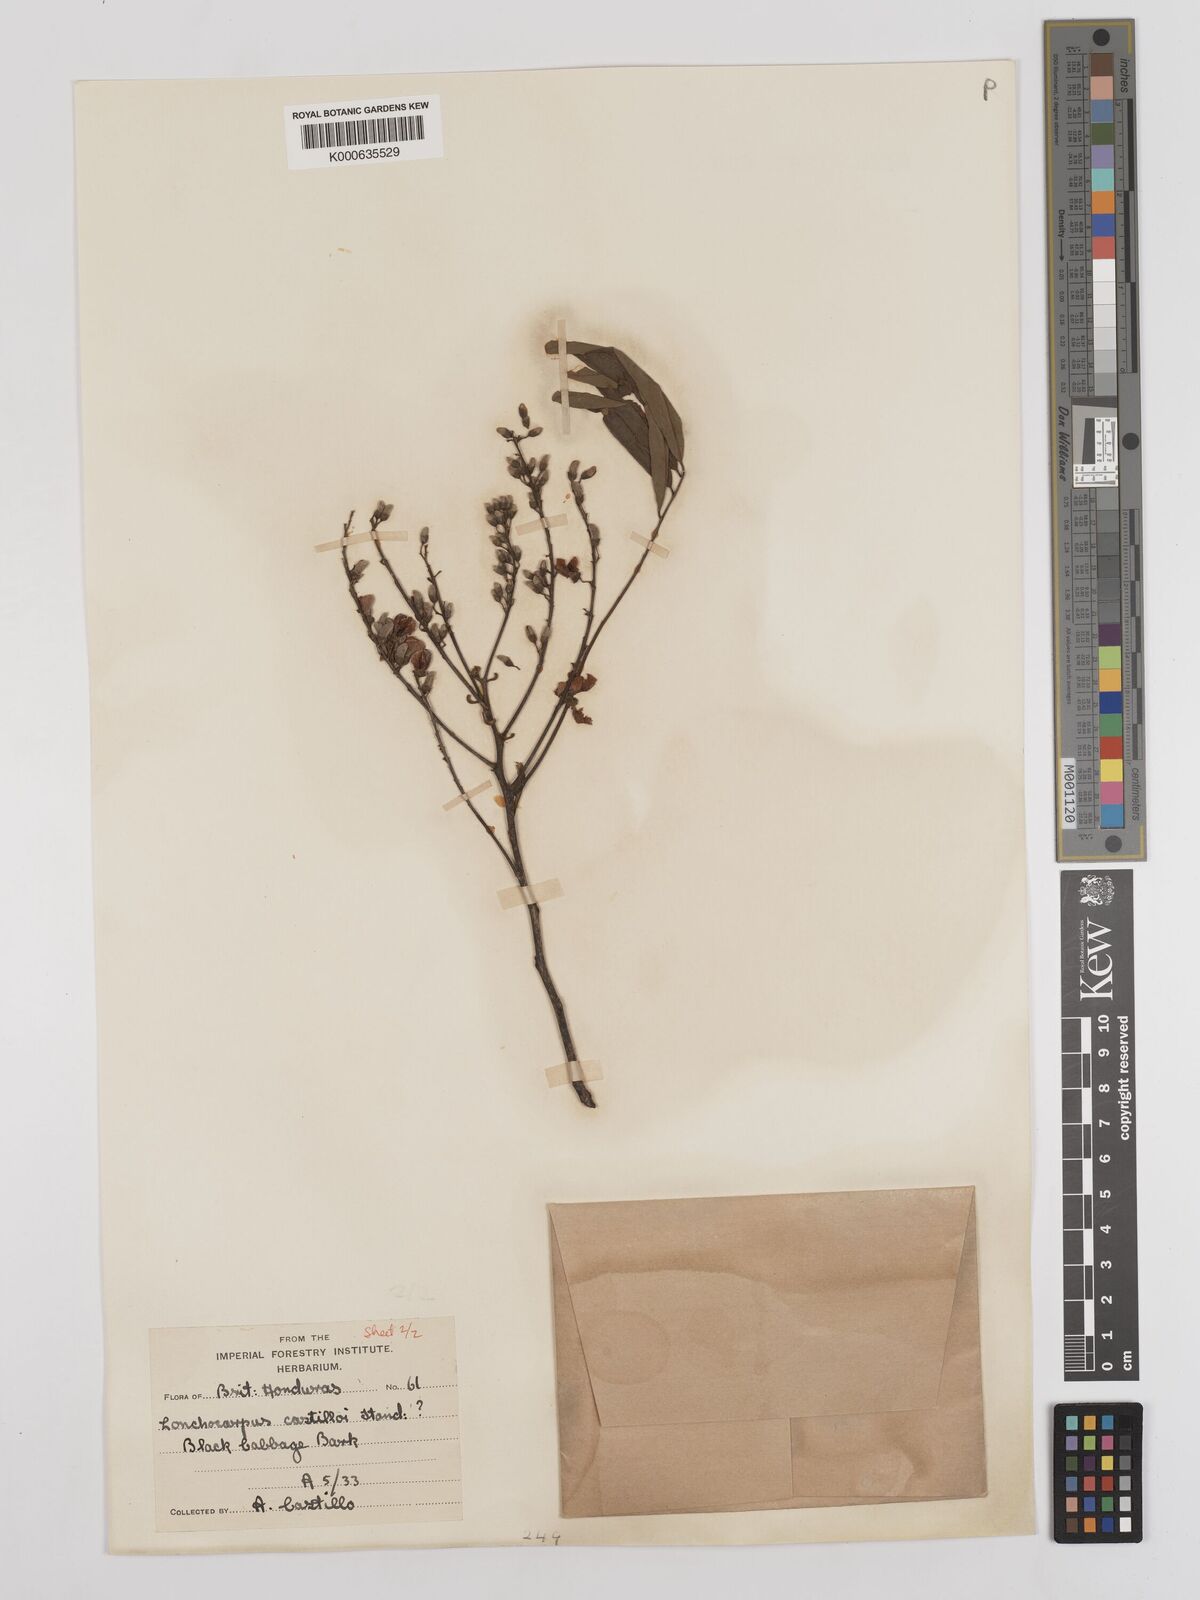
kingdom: Plantae
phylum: Tracheophyta
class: Magnoliopsida
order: Fabales
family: Fabaceae
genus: Lonchocarpus
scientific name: Lonchocarpus castilloi
